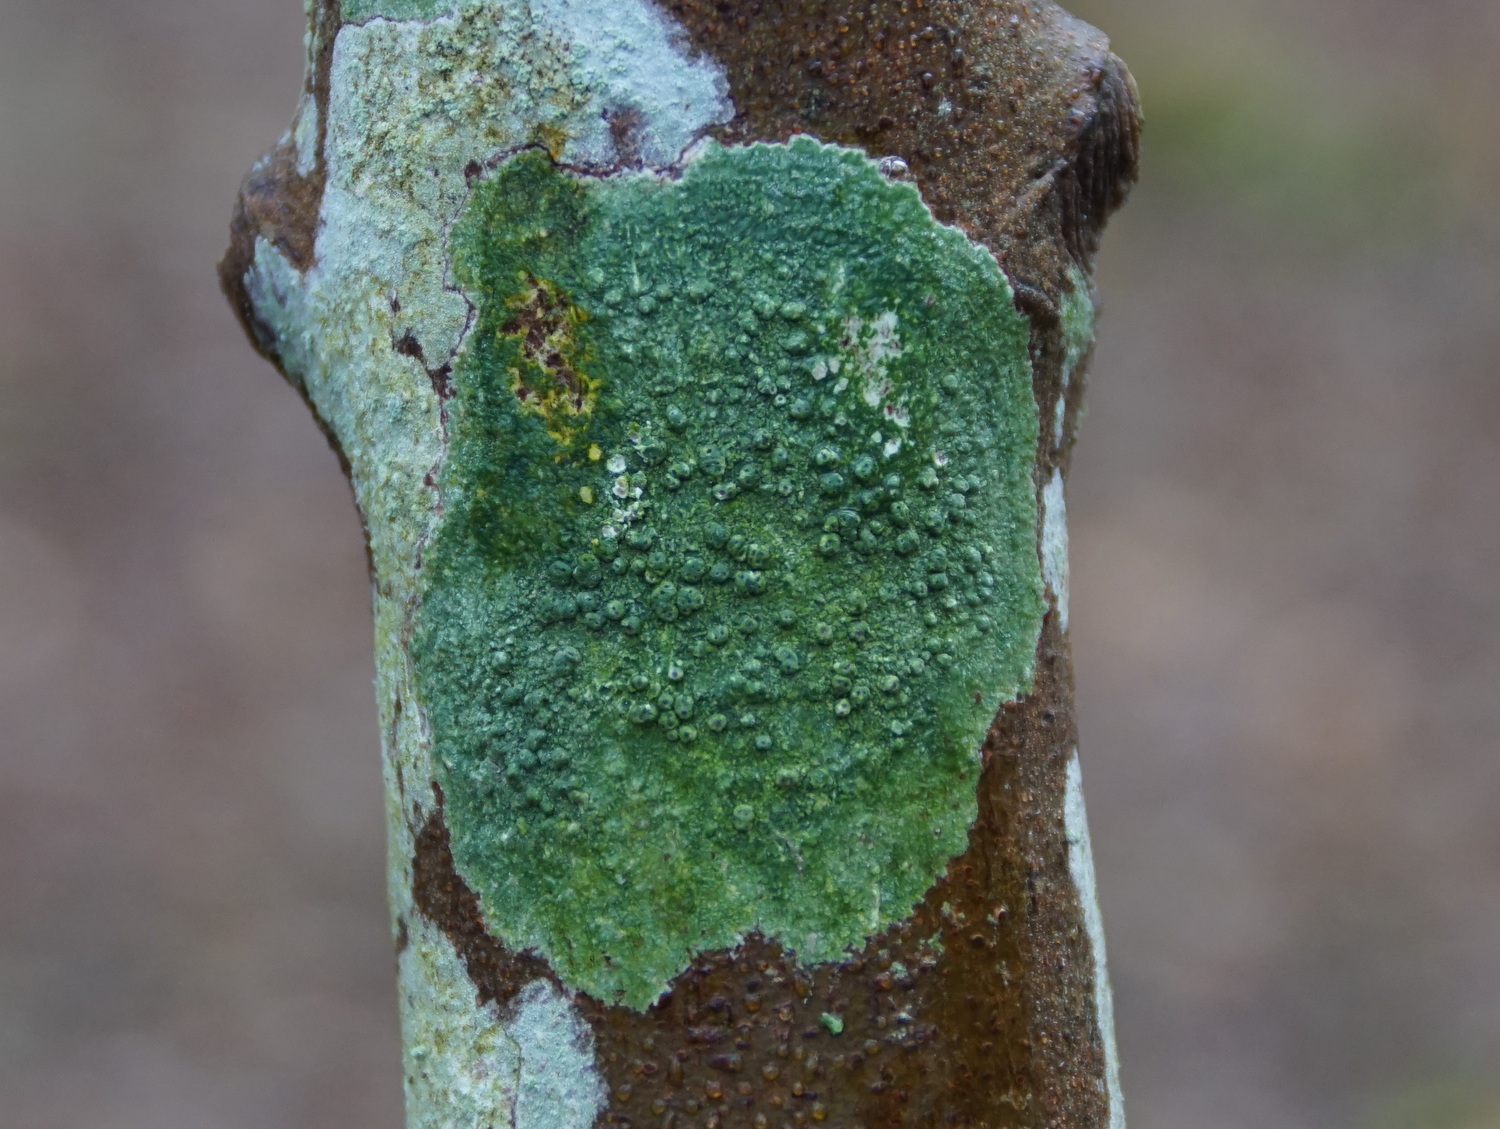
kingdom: Fungi
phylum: Ascomycota
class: Lecanoromycetes
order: Pertusariales
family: Pertusariaceae
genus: Pertusaria
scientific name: Pertusaria pertusa
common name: almindelig prikvortelav
